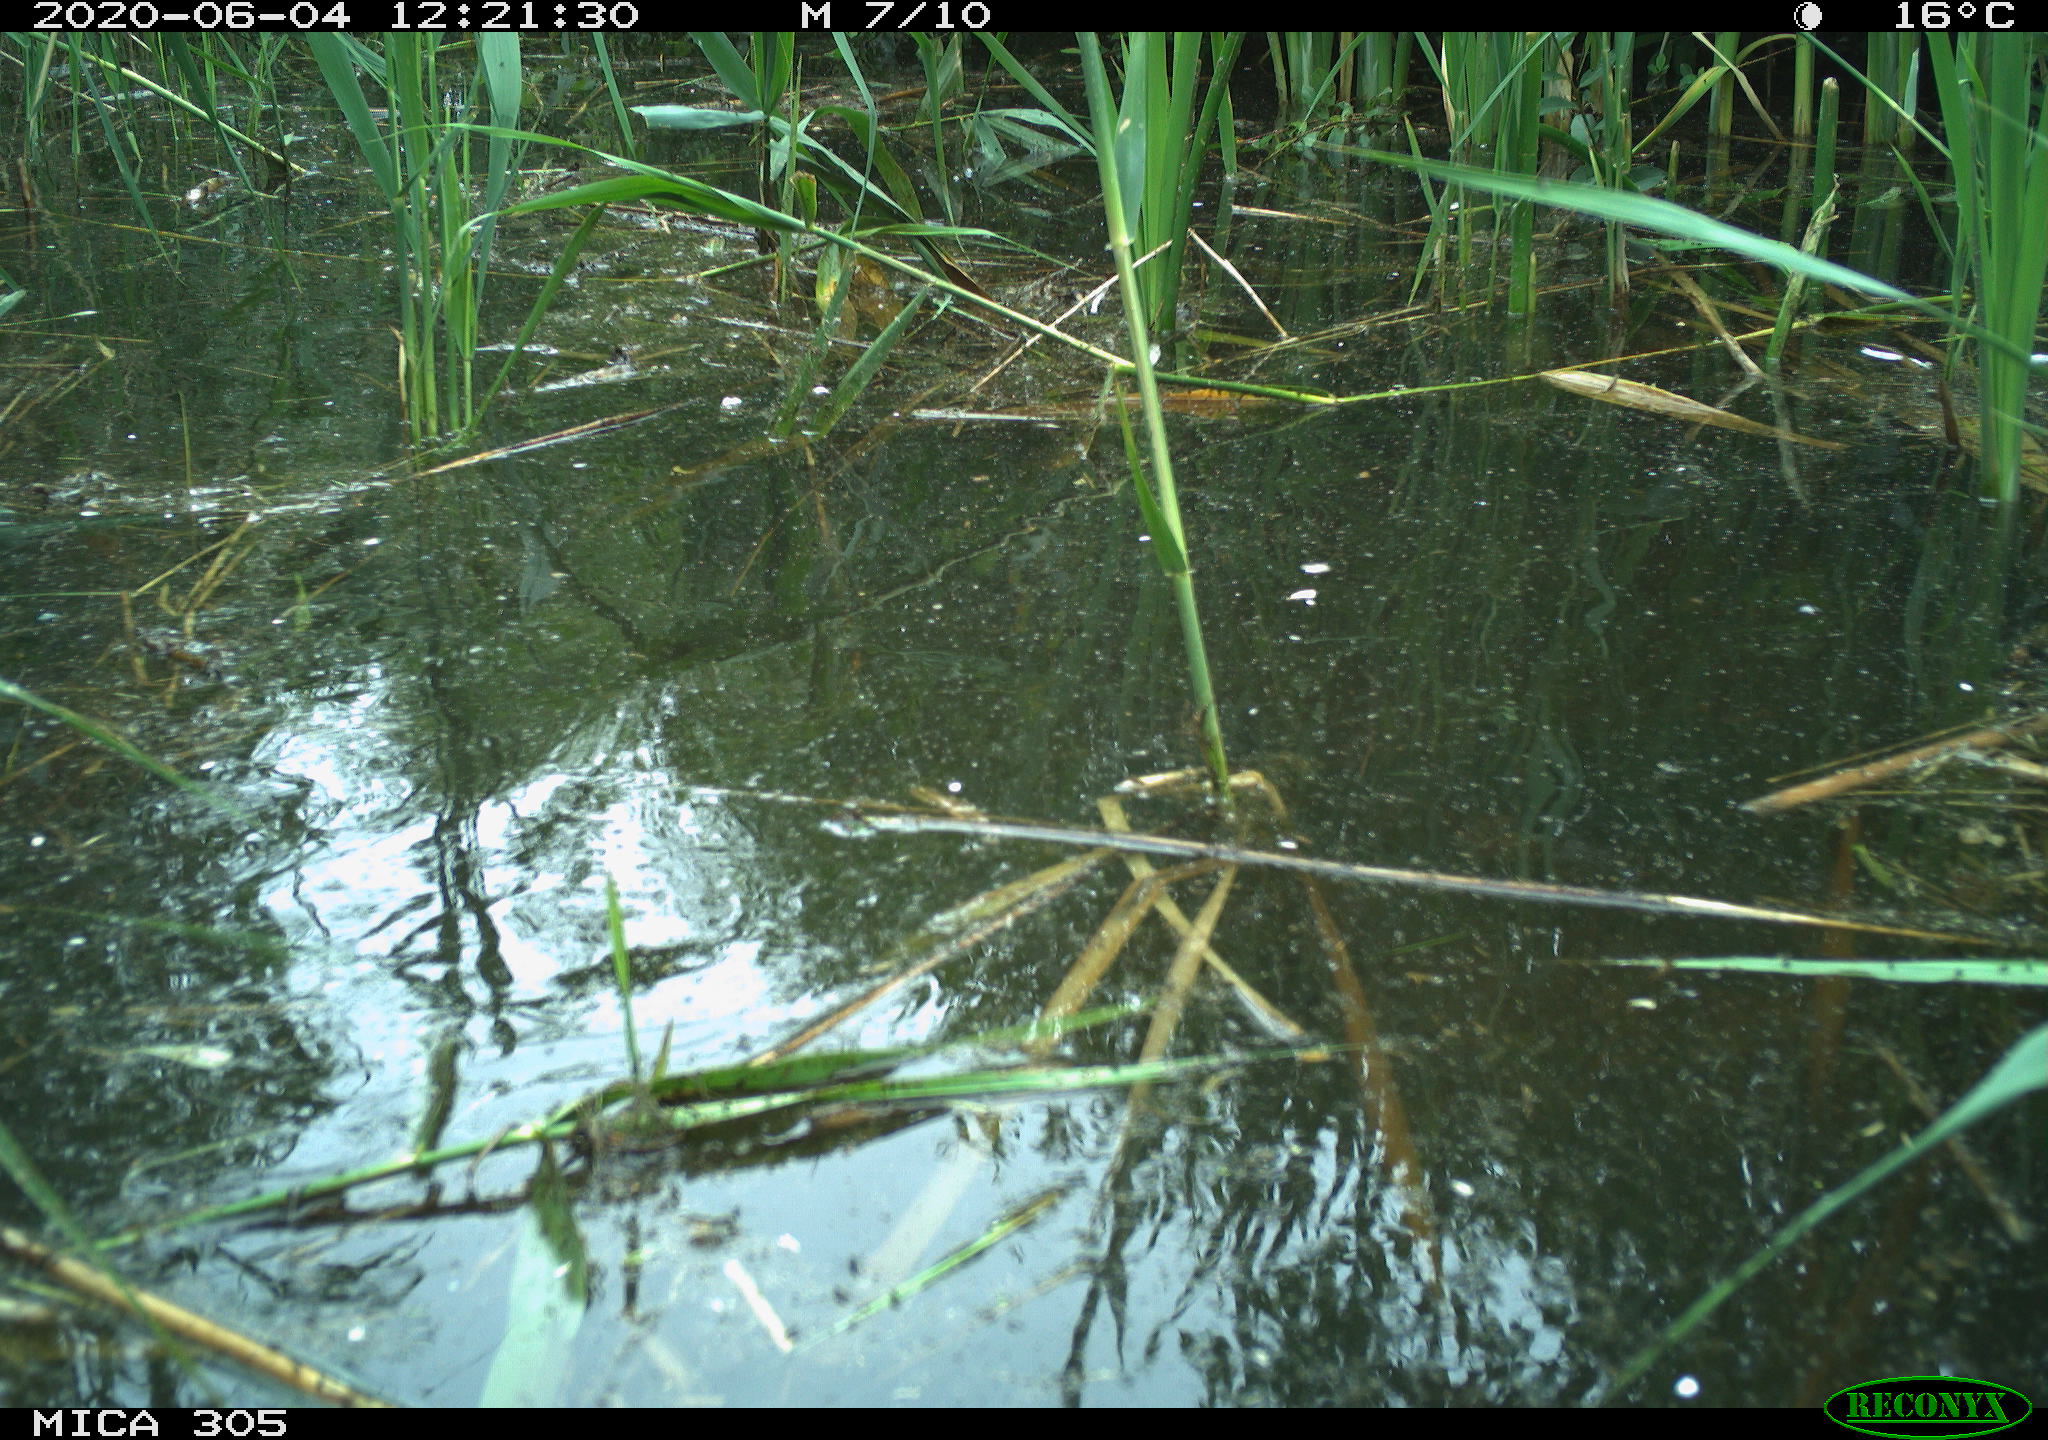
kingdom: Animalia
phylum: Chordata
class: Aves
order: Podicipediformes
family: Podicipedidae
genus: Podiceps
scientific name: Podiceps cristatus
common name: Great crested grebe
